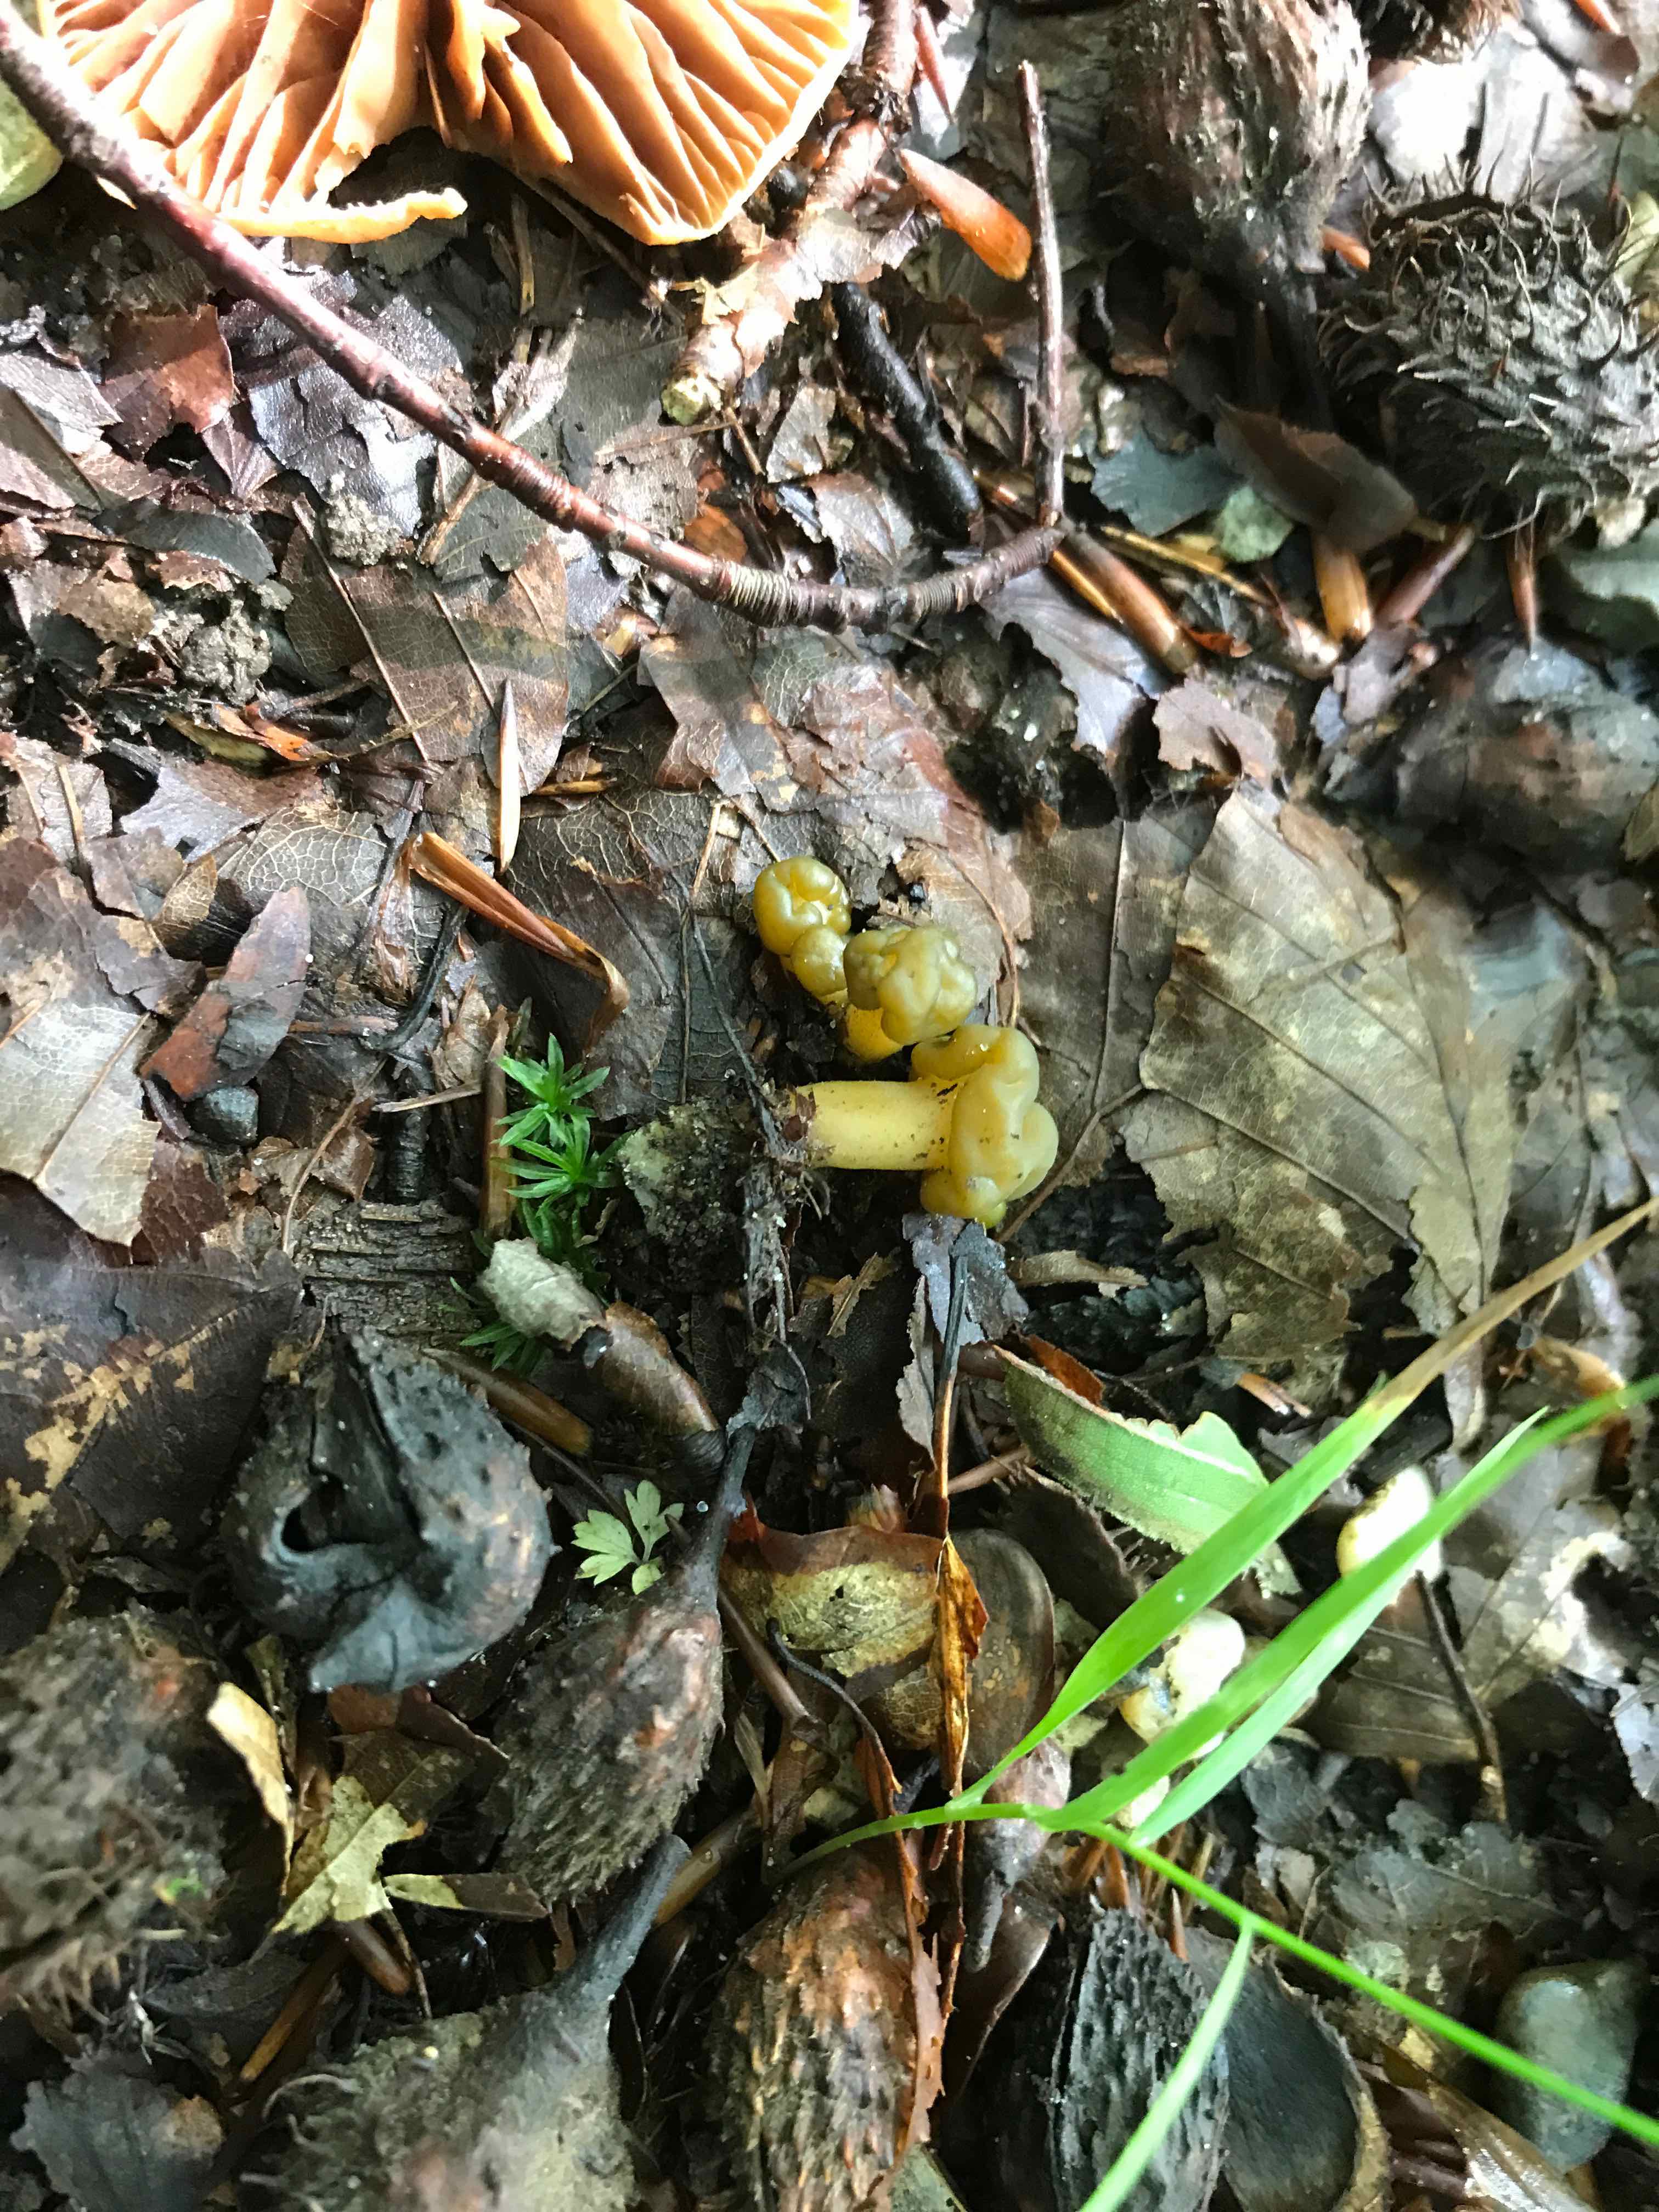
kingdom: Fungi
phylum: Ascomycota
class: Leotiomycetes
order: Leotiales
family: Leotiaceae
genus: Leotia
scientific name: Leotia lubrica
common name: ravsvamp
